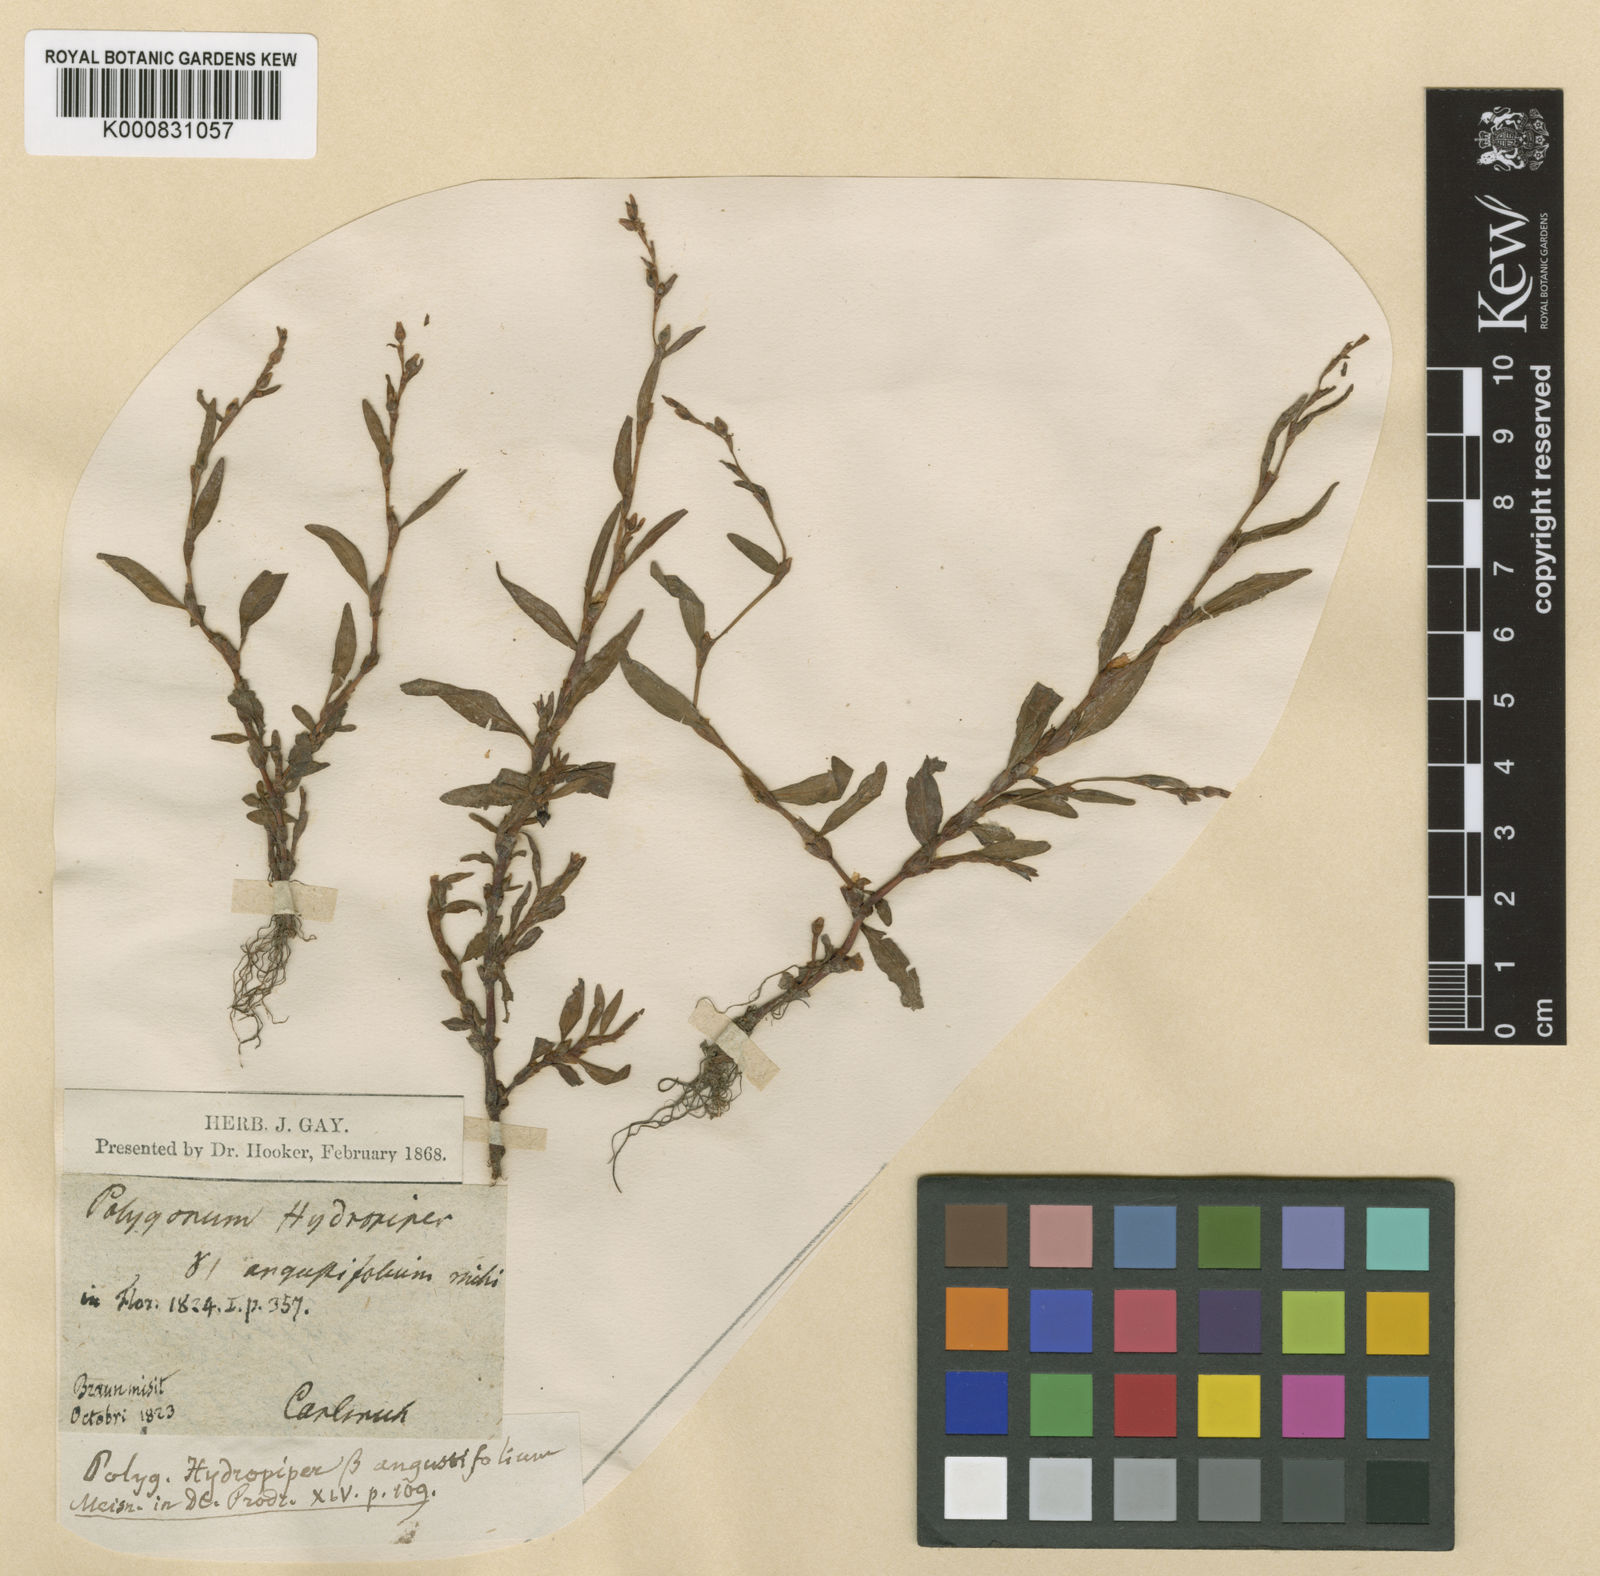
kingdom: Plantae
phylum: Tracheophyta
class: Magnoliopsida
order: Caryophyllales
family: Polygonaceae
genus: Persicaria
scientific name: Persicaria hydropiper
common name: Water-pepper
